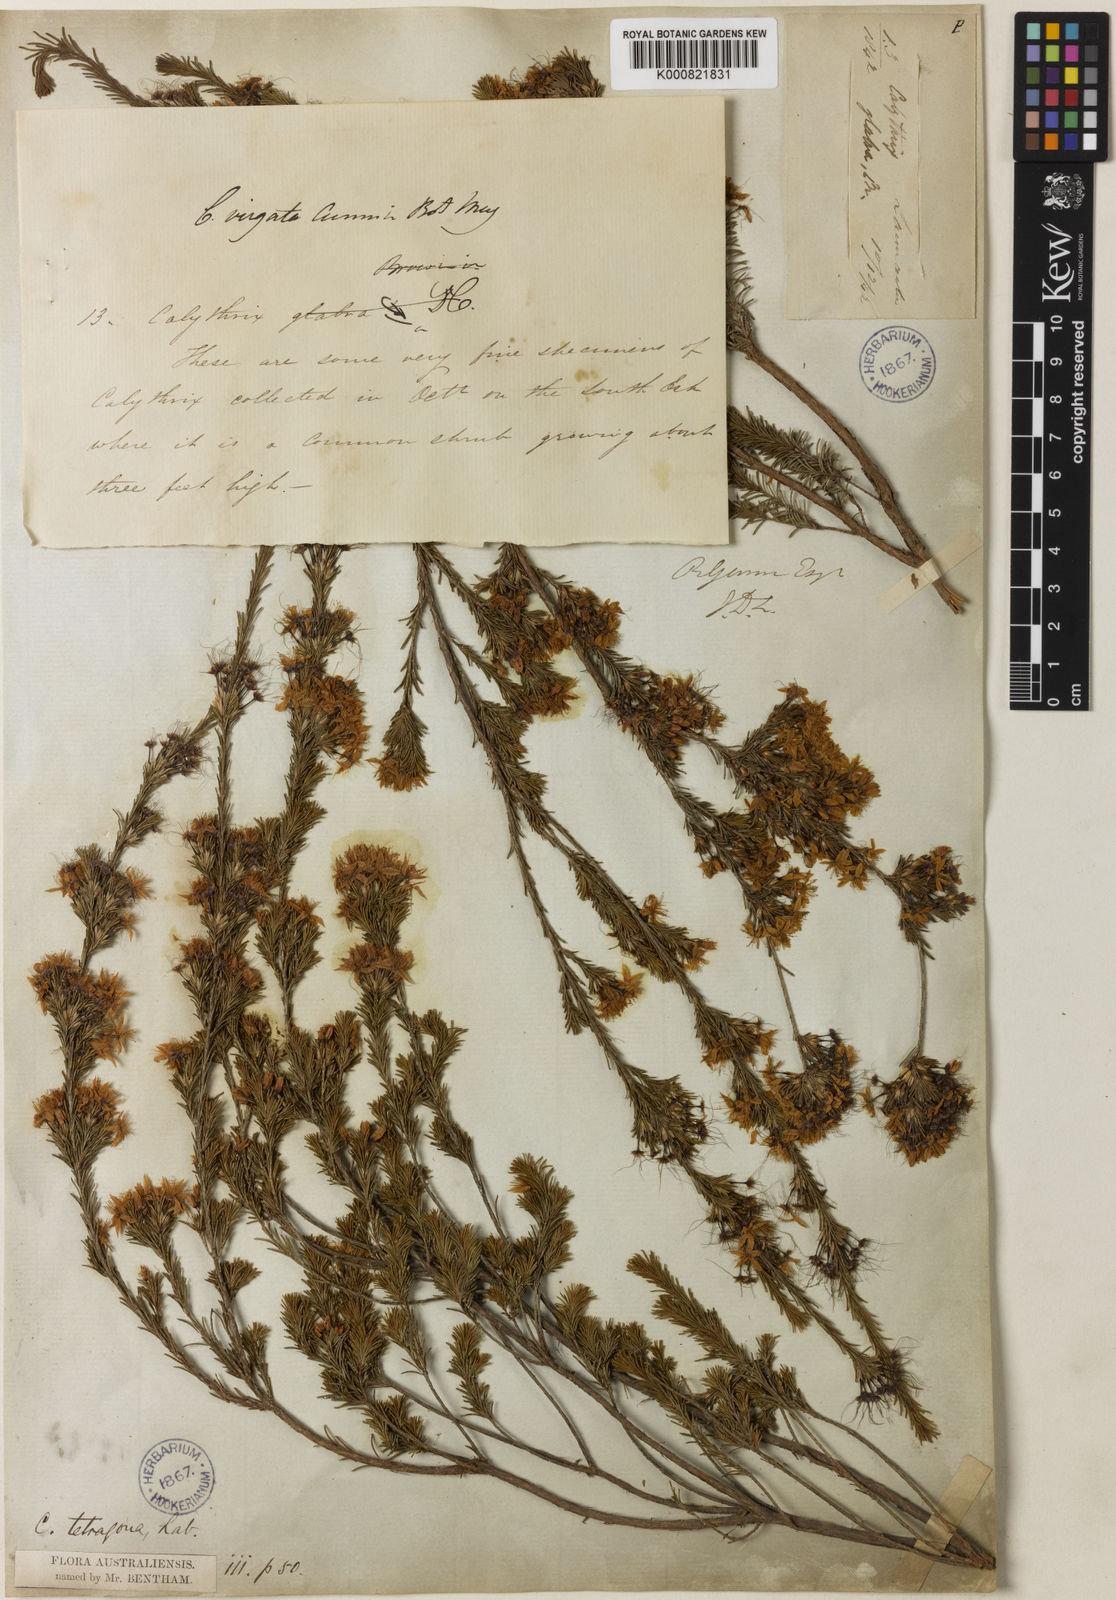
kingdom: Plantae
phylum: Tracheophyta
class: Magnoliopsida
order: Myrtales
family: Myrtaceae
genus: Calytrix
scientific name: Calytrix tetragona
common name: Common fringe myrtle
